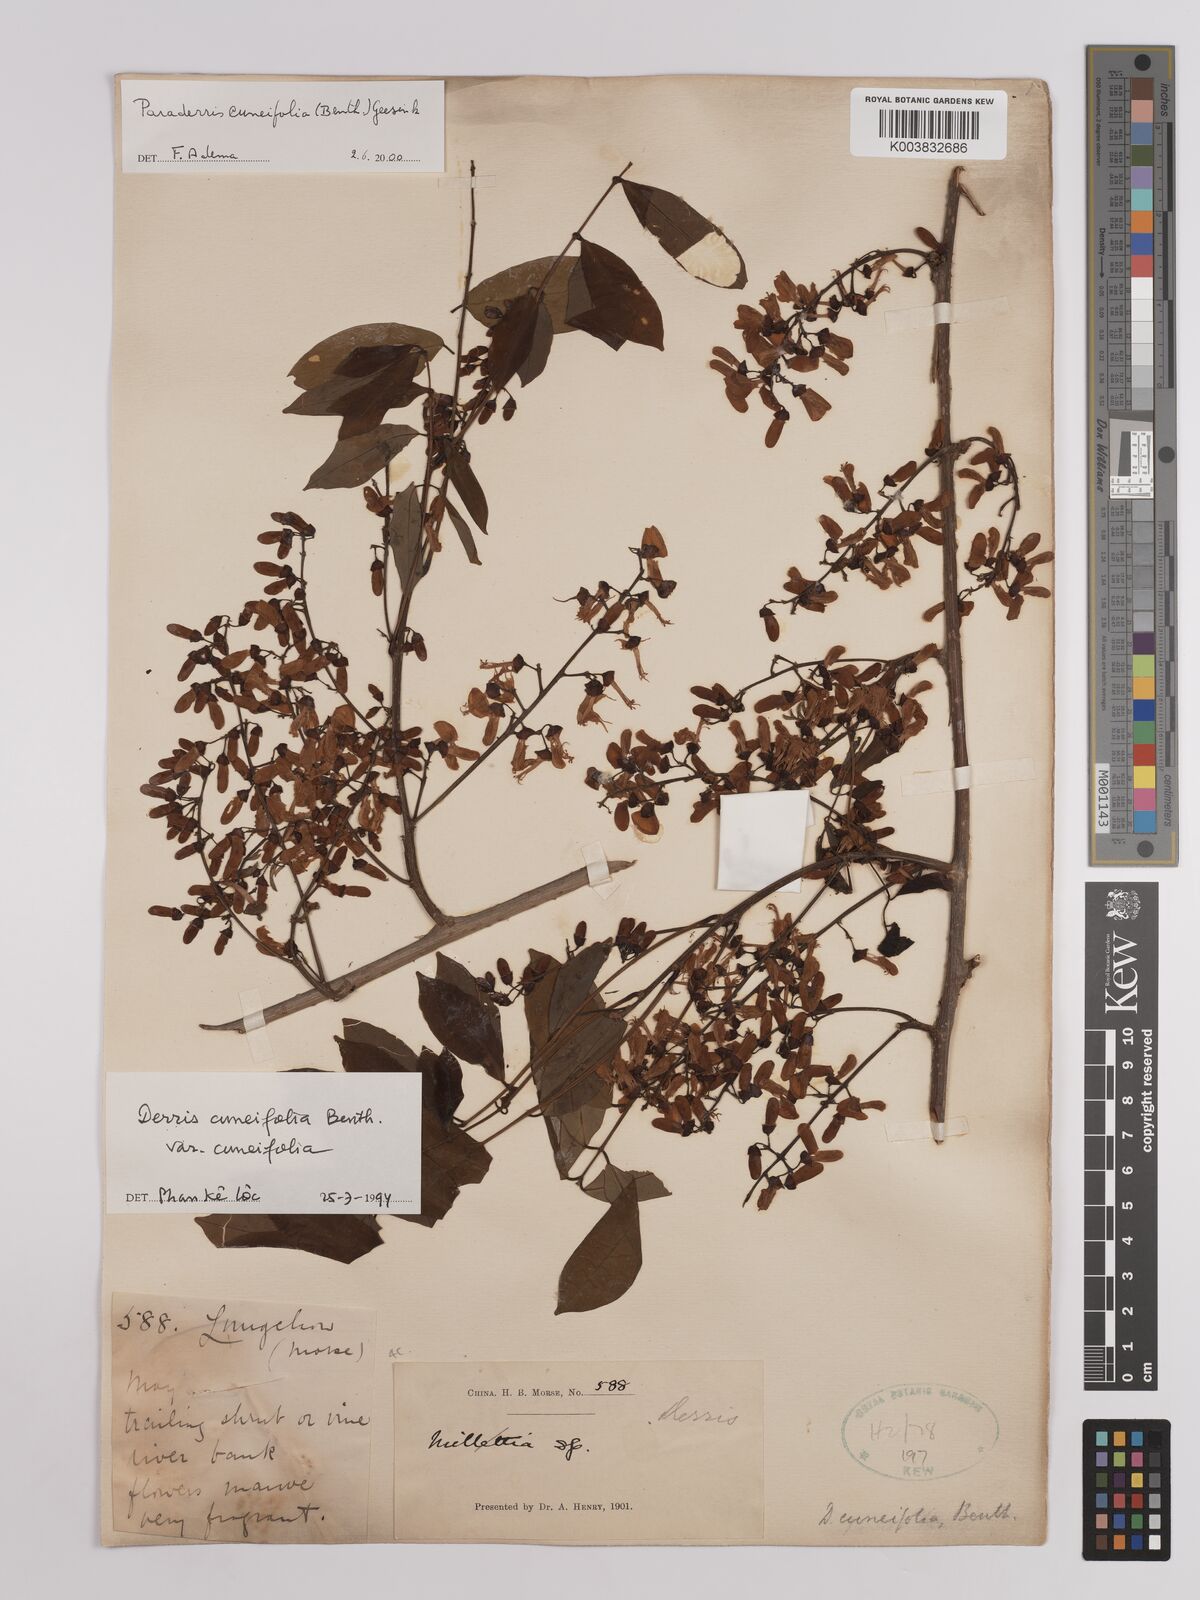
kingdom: Plantae
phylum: Tracheophyta
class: Magnoliopsida
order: Fabales
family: Fabaceae
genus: Derris
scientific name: Derris cuneifolia
